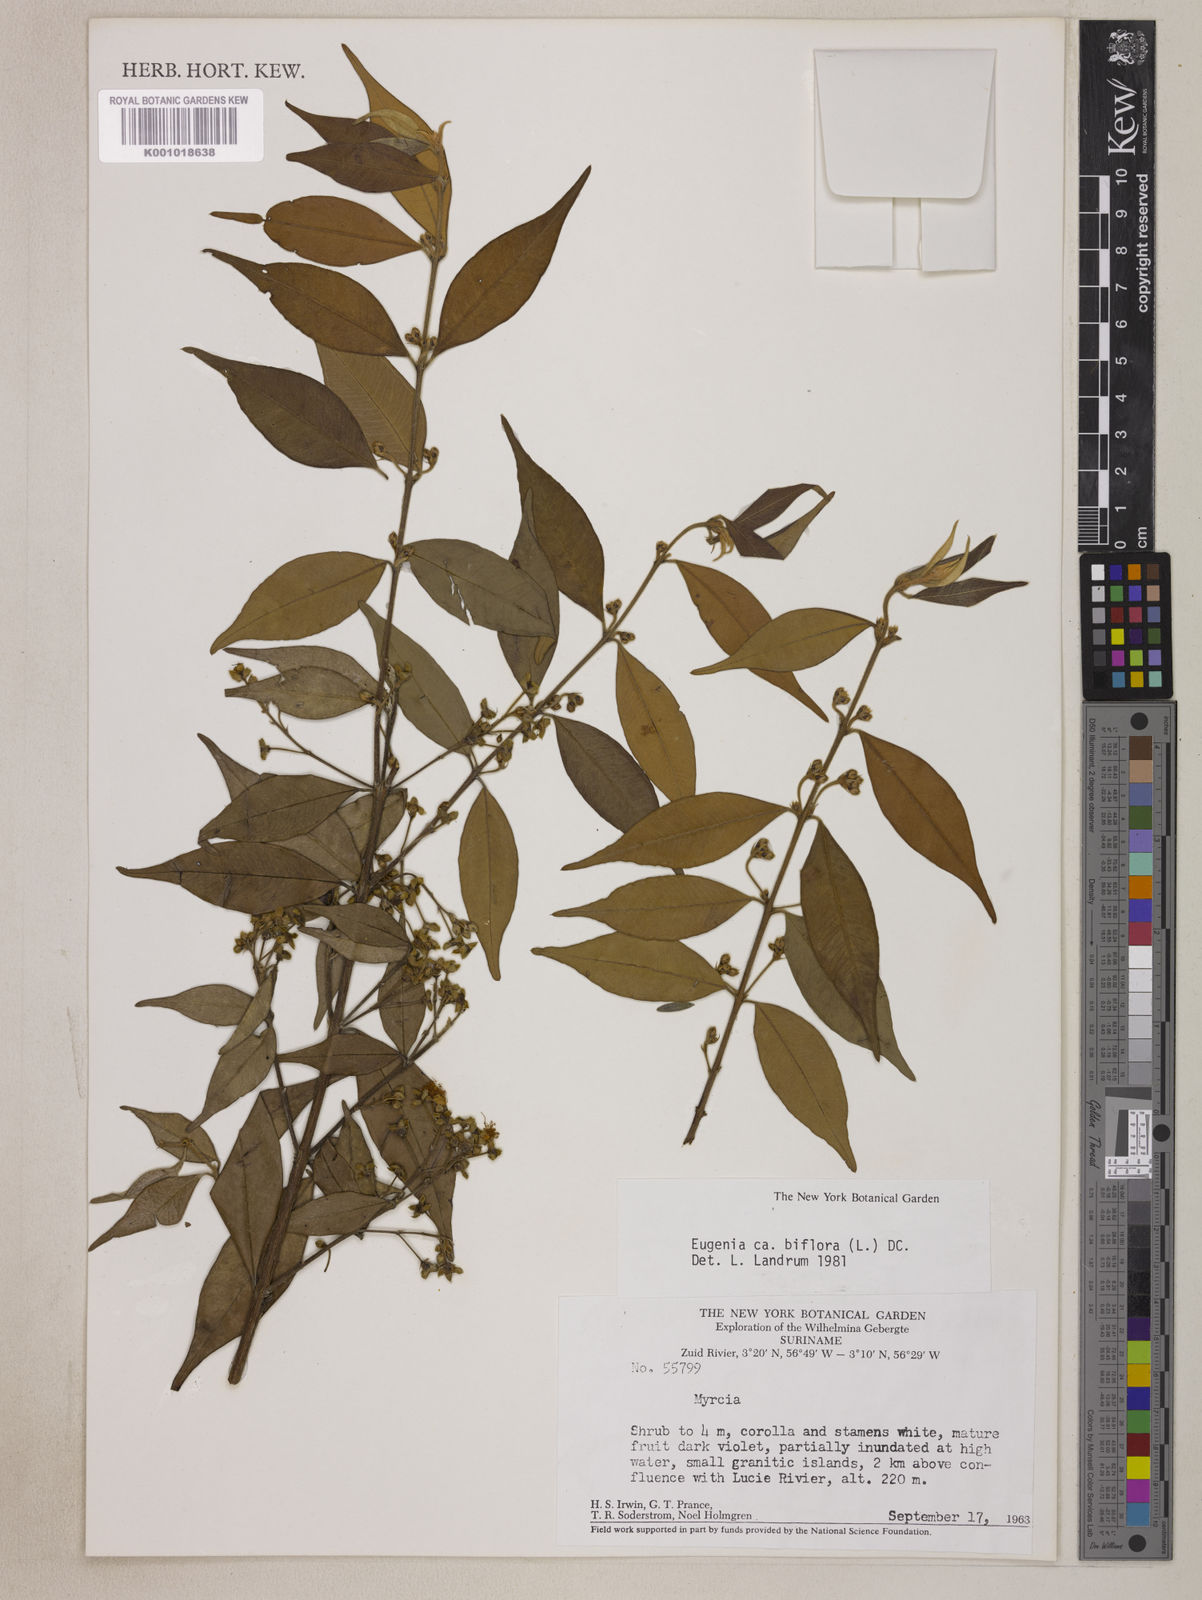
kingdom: Plantae
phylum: Tracheophyta
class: Magnoliopsida
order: Myrtales
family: Myrtaceae
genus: Eugenia
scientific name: Eugenia biflora
